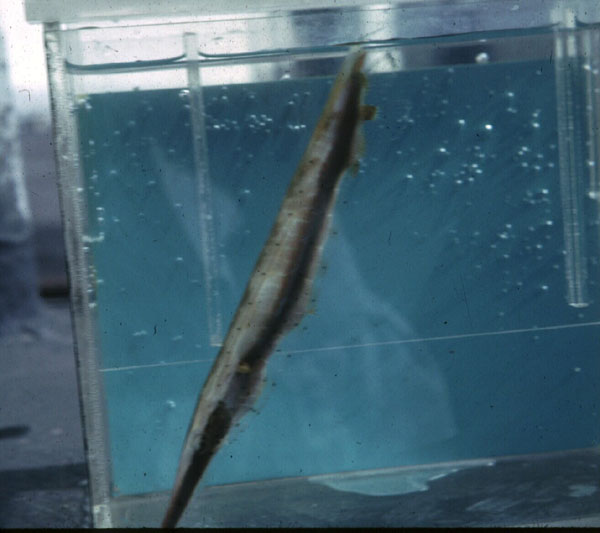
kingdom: Animalia
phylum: Chordata
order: Syngnathiformes
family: Centriscidae
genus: Aeoliscus
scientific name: Aeoliscus punctulatus
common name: Razorfish
